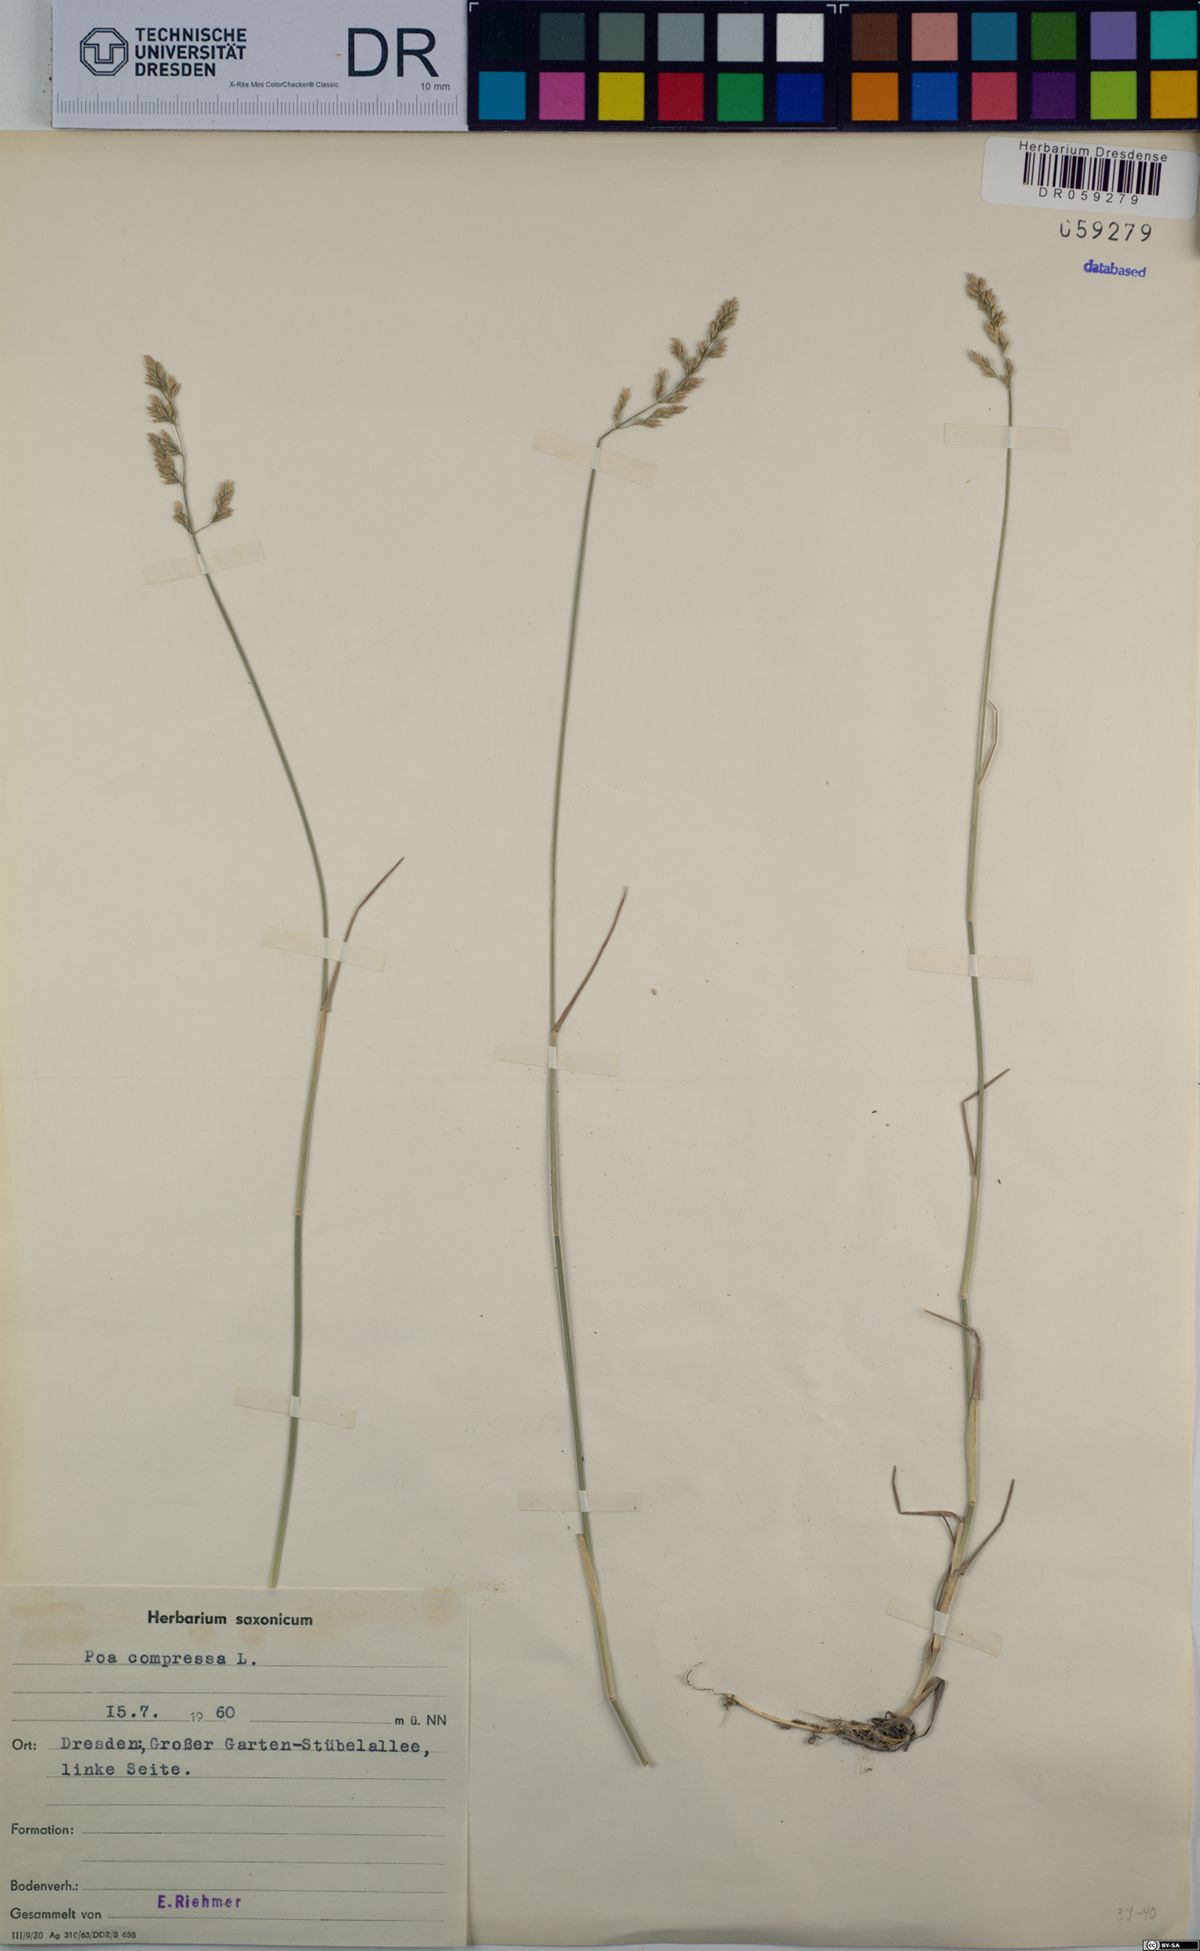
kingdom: Plantae
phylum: Tracheophyta
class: Liliopsida
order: Poales
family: Poaceae
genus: Poa
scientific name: Poa compressa
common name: Canada bluegrass
